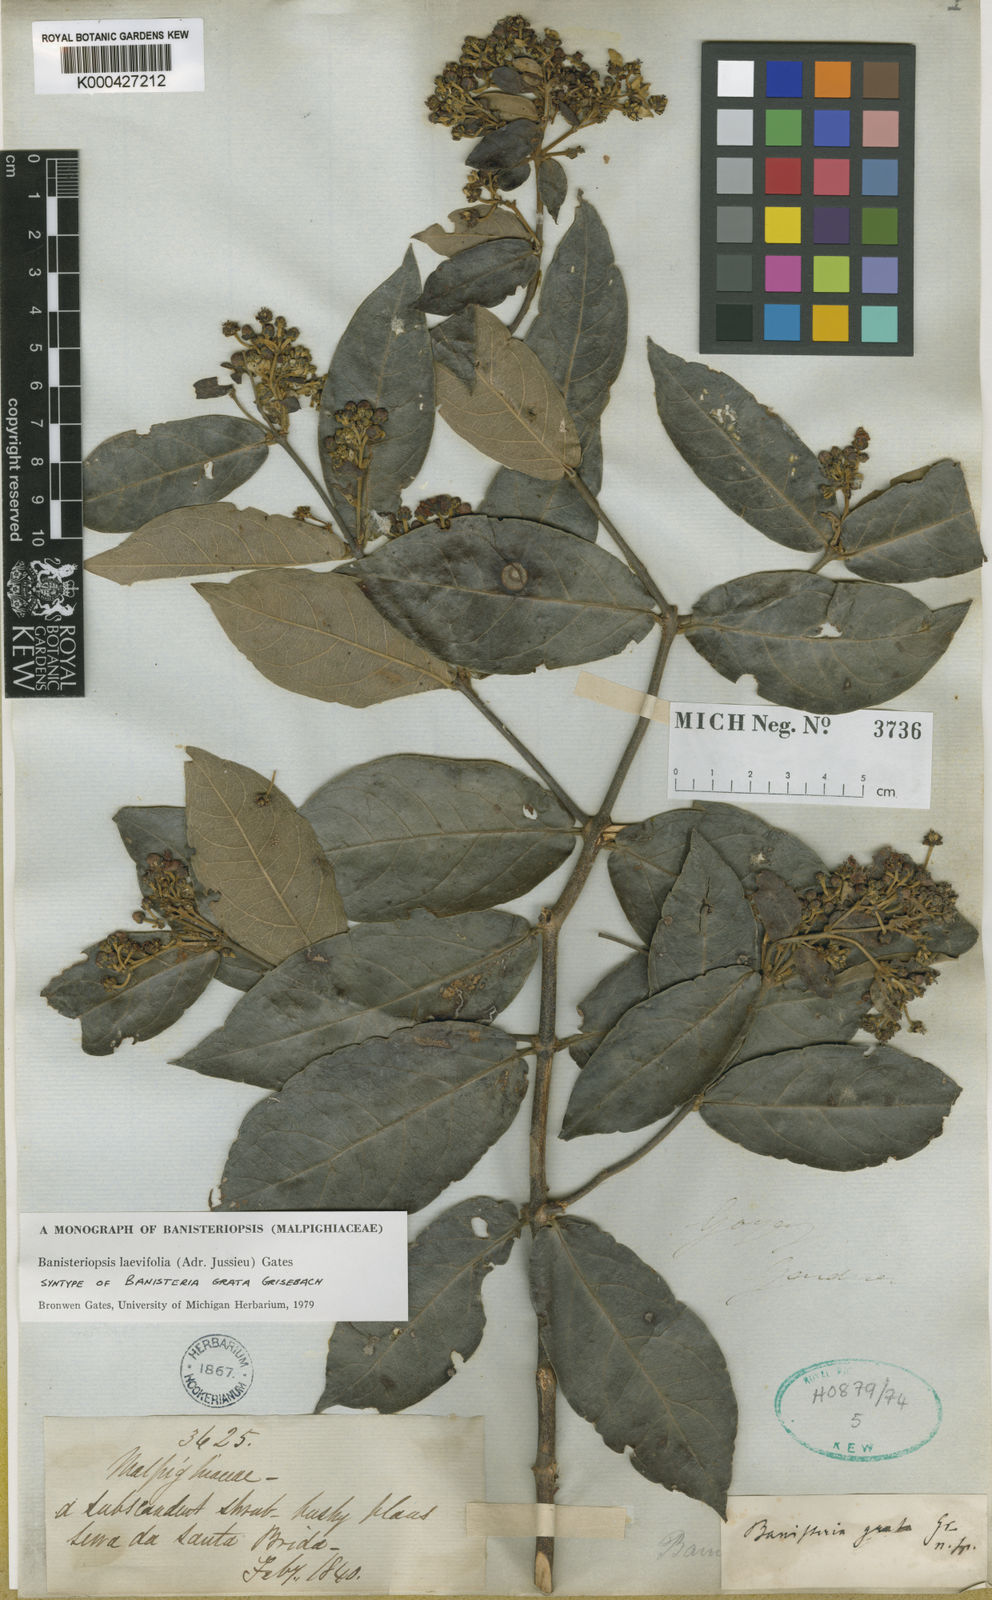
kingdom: Plantae
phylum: Tracheophyta
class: Magnoliopsida
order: Malpighiales
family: Malpighiaceae
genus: Banisteriopsis
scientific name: Banisteriopsis laevifolia
